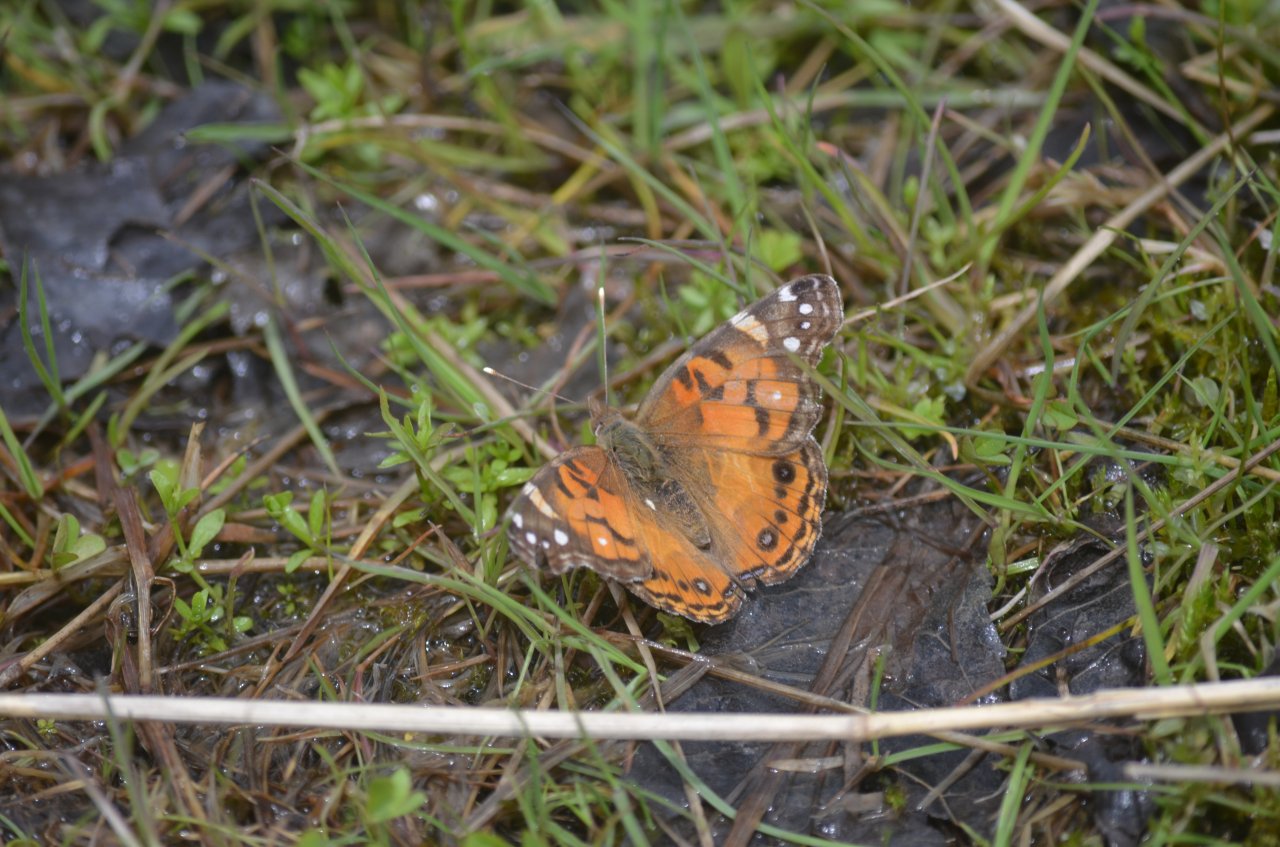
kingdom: Animalia
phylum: Arthropoda
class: Insecta
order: Lepidoptera
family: Nymphalidae
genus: Vanessa
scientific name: Vanessa virginiensis
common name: American Lady
